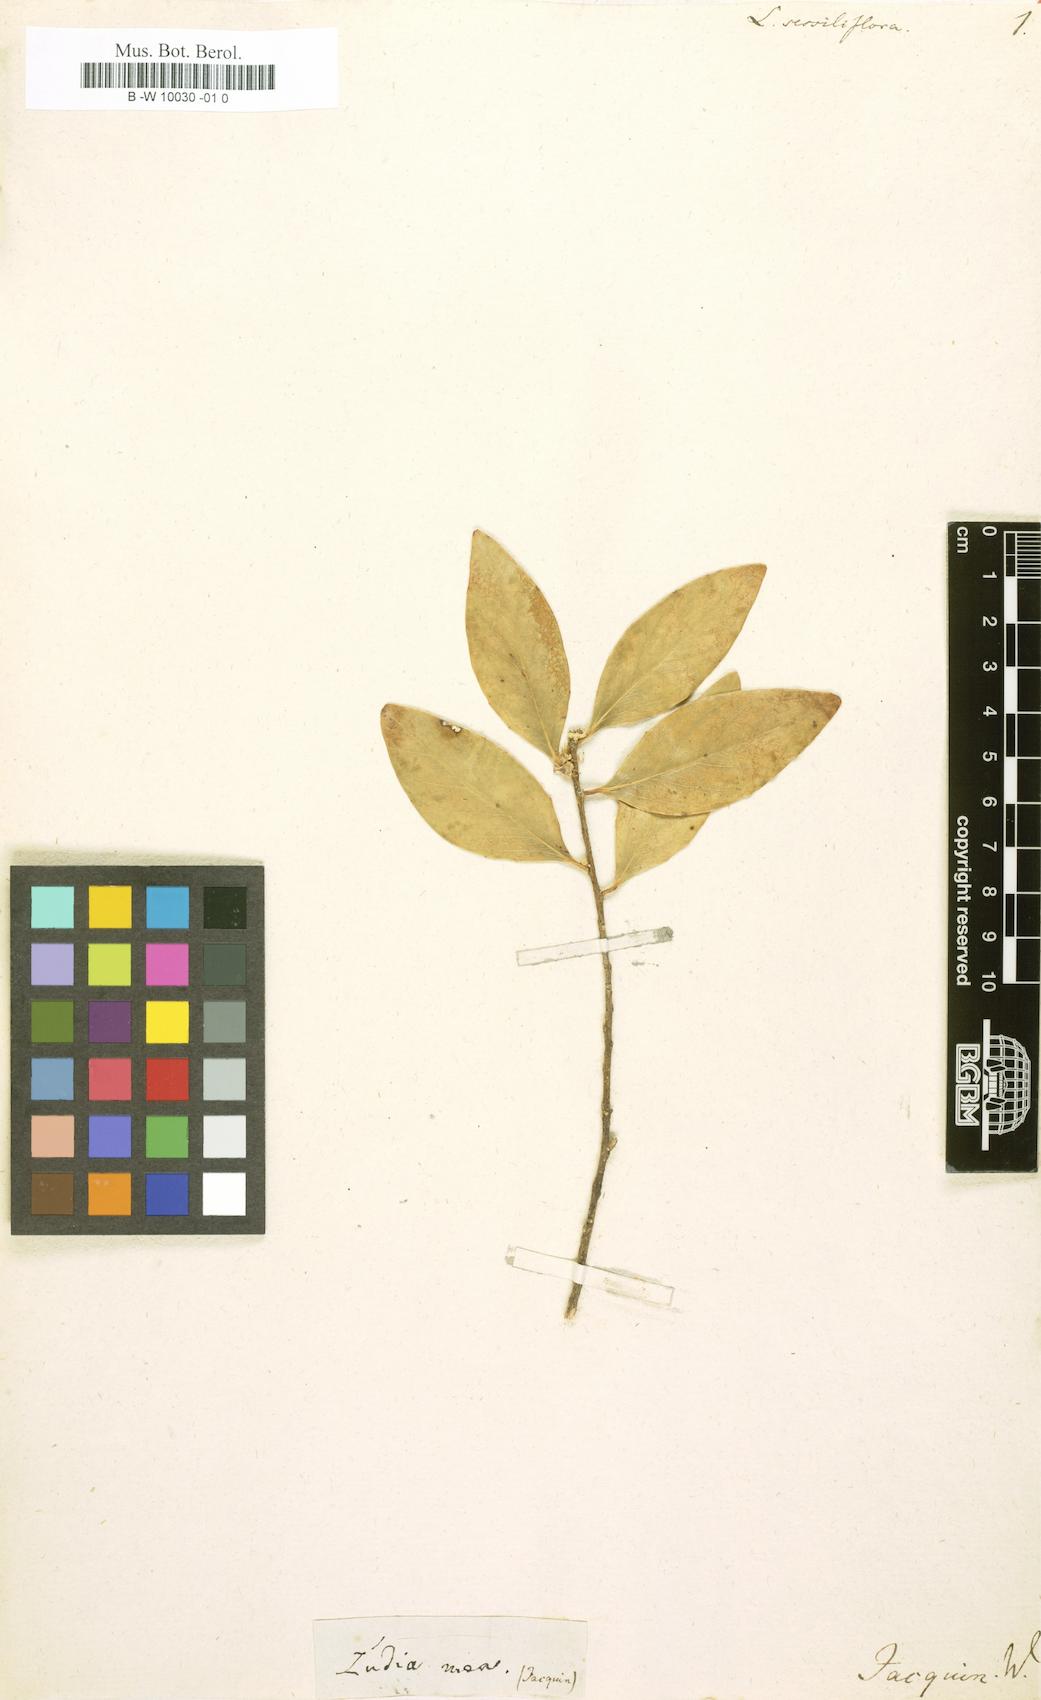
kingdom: Plantae
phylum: Tracheophyta
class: Magnoliopsida
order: Malpighiales
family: Salicaceae
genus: Ludia
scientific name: Ludia mauritiana
